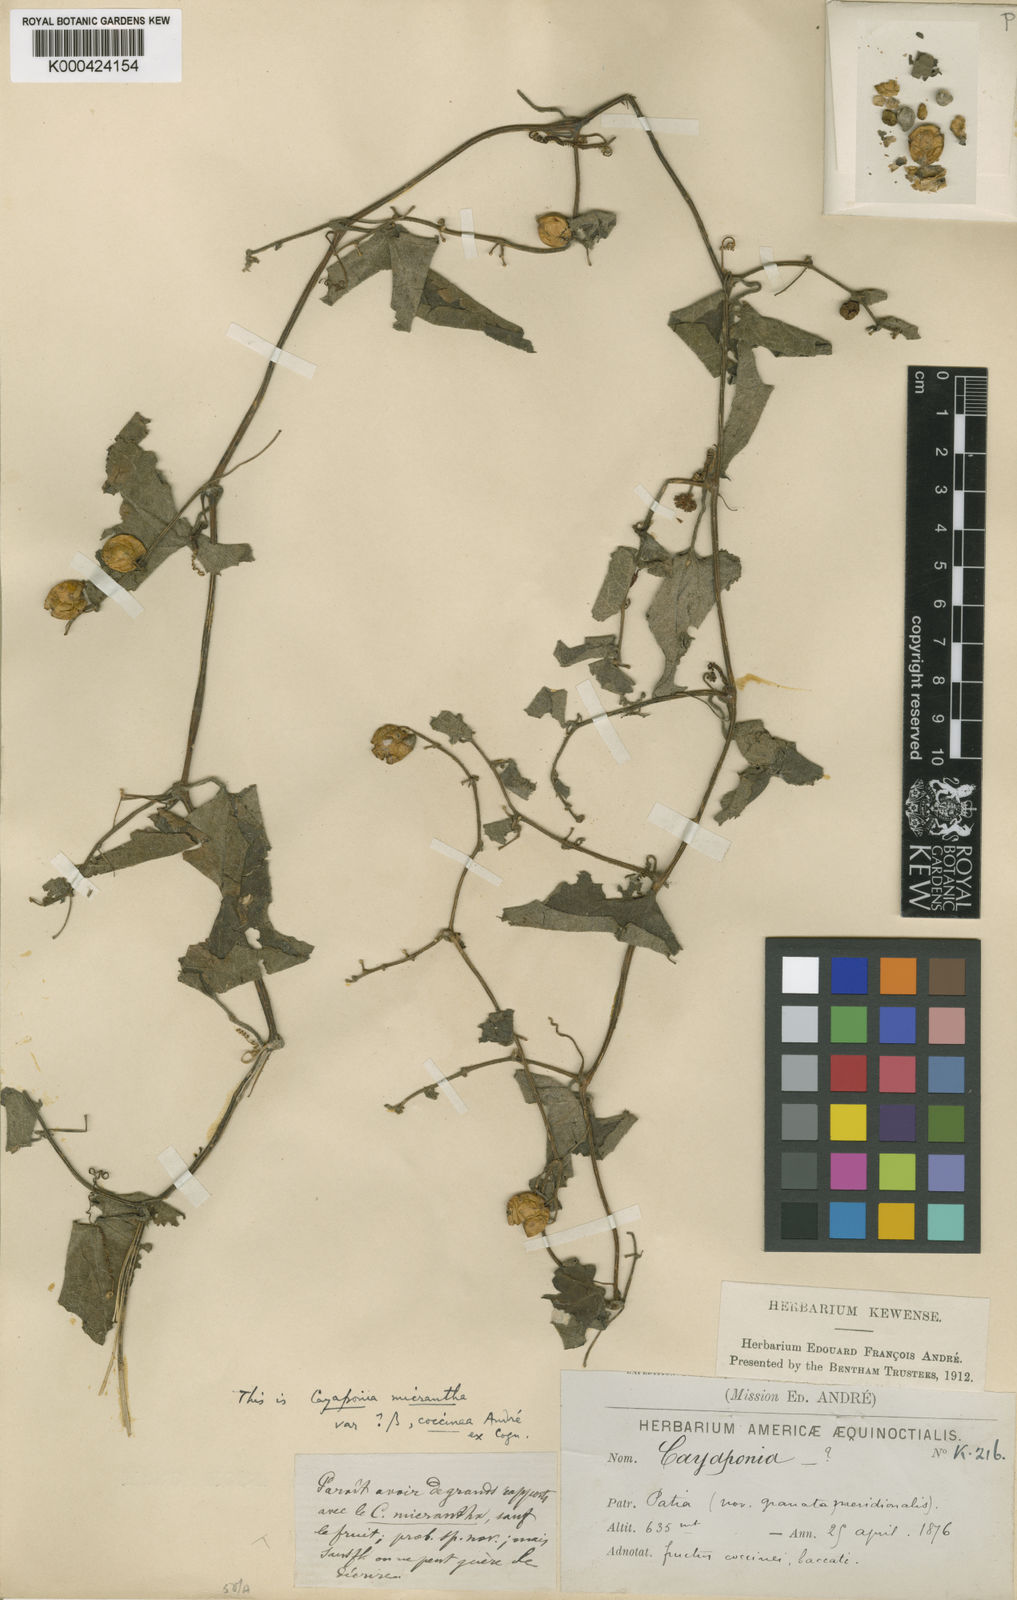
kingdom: Plantae
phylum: Tracheophyta
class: Magnoliopsida
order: Cucurbitales
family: Cucurbitaceae
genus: Cayaponia
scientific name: Cayaponia triangularis
